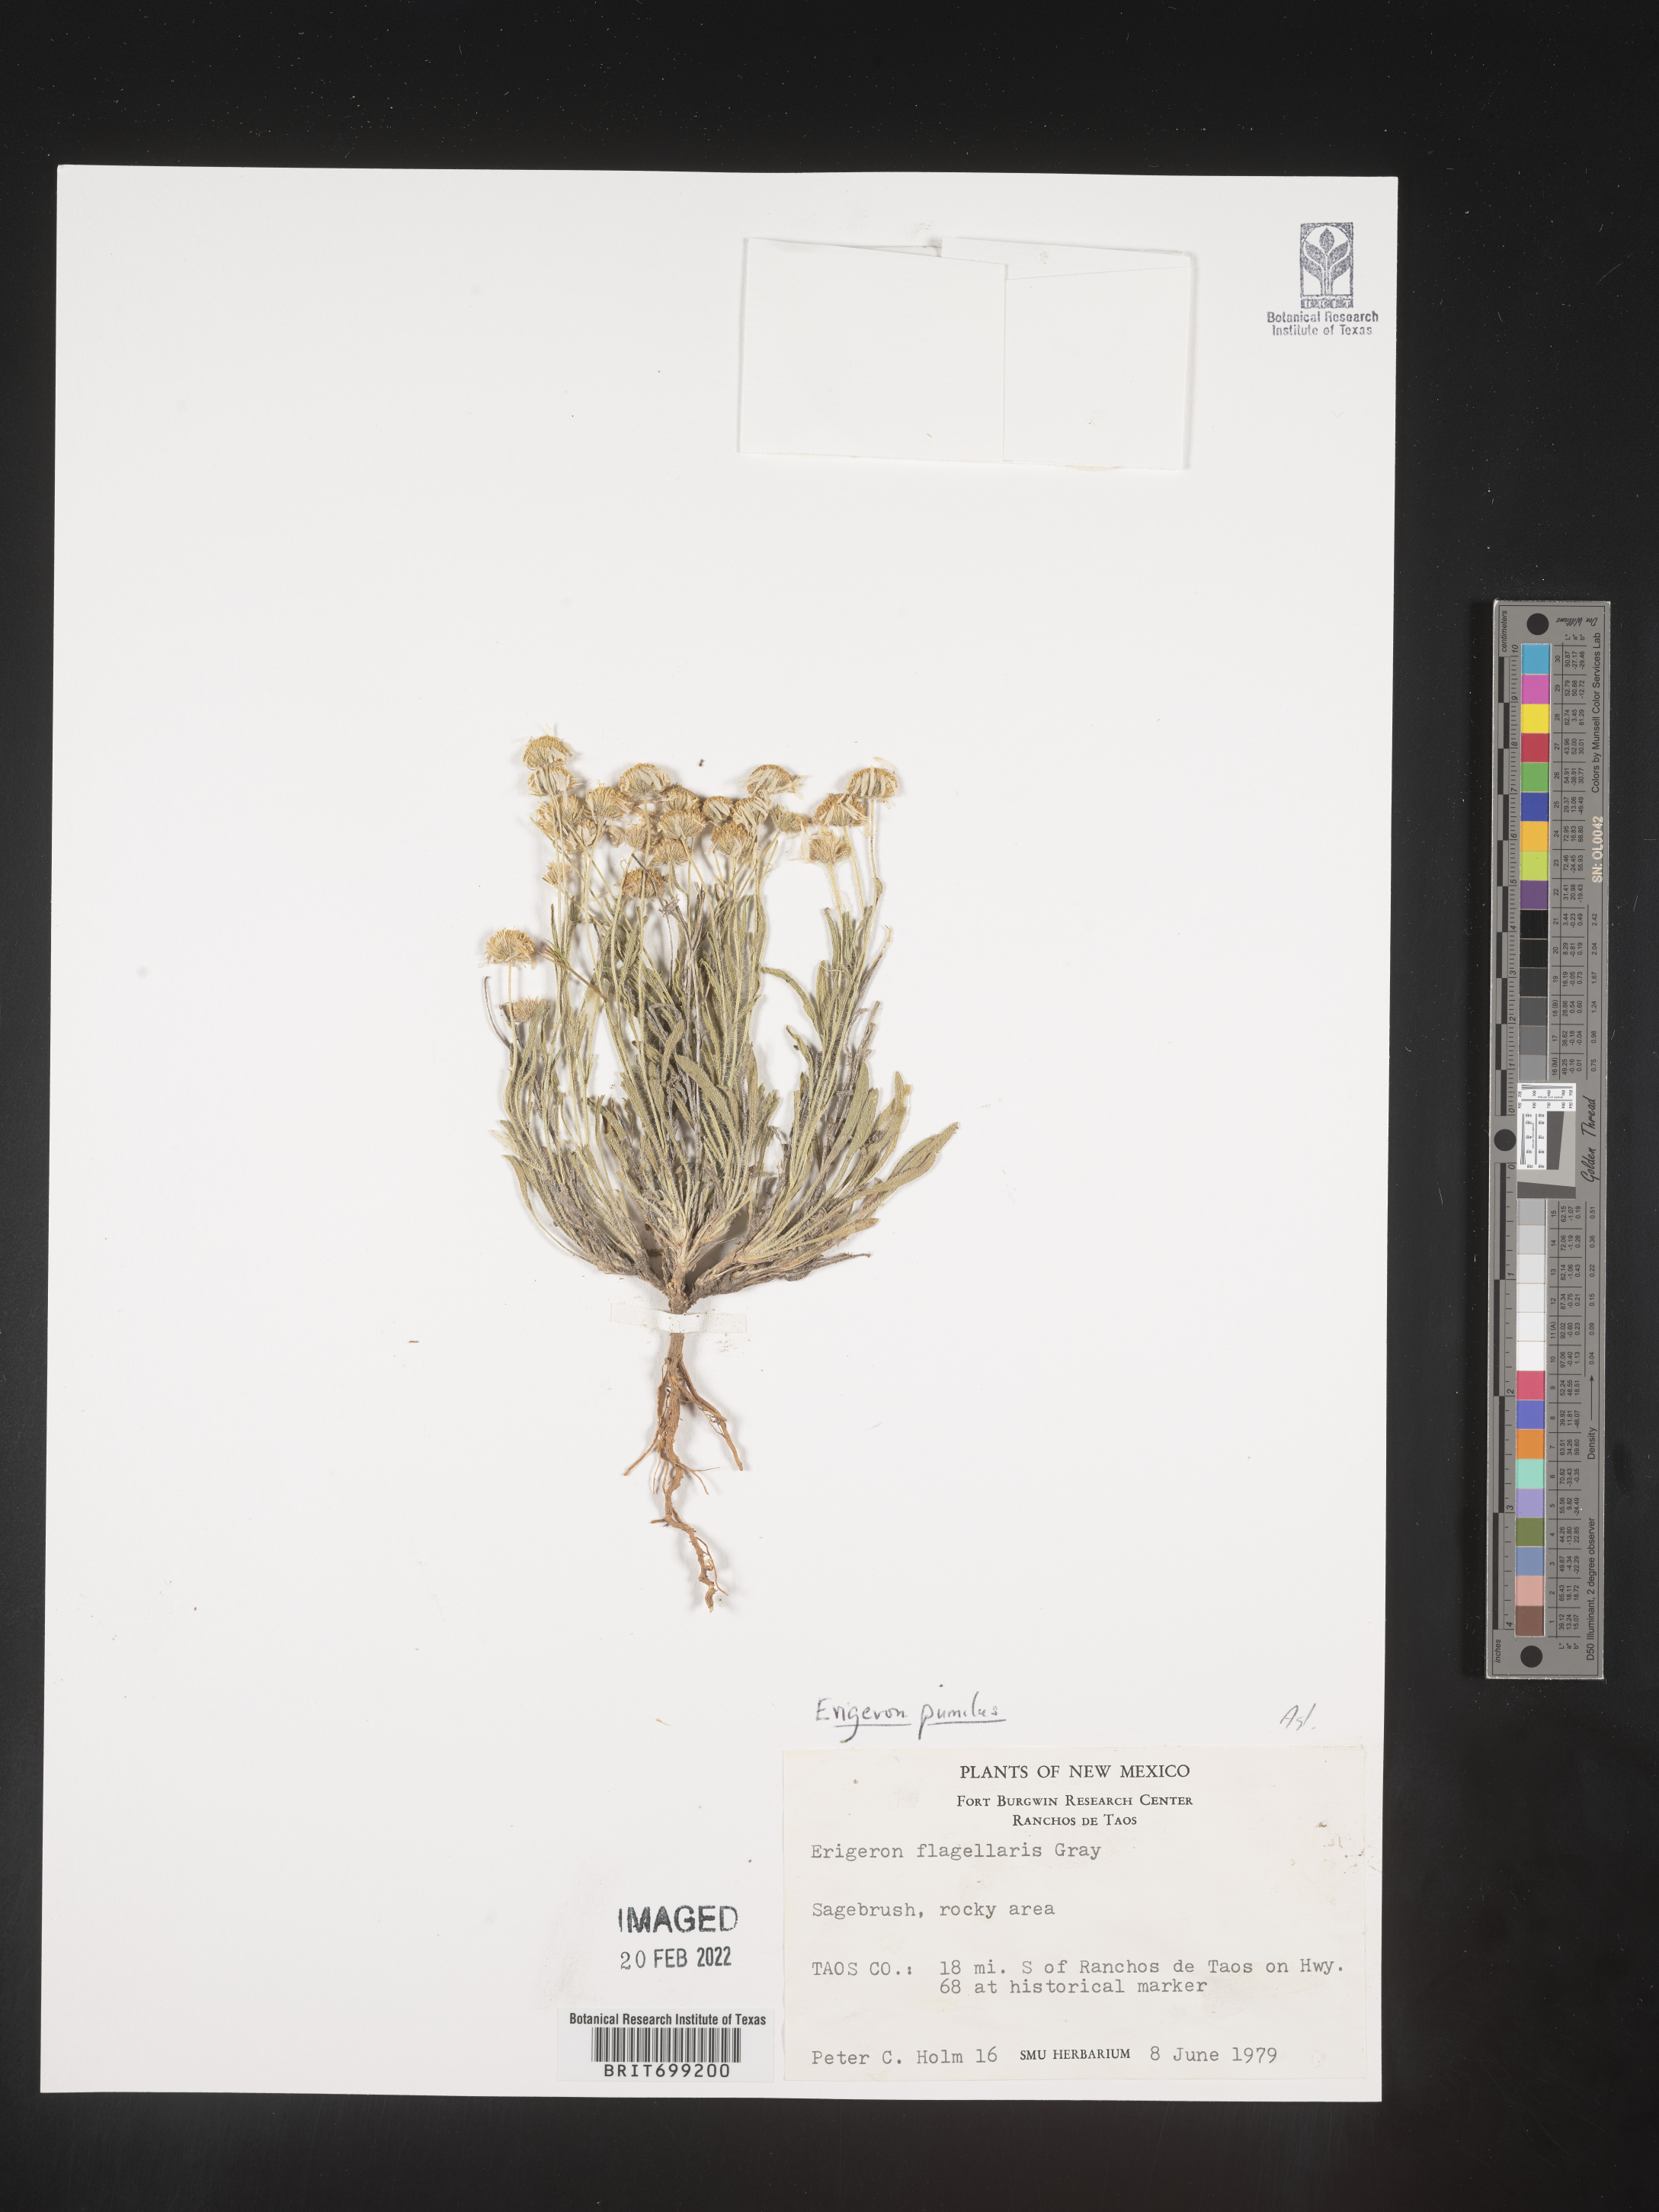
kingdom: Plantae
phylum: Tracheophyta
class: Magnoliopsida
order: Asterales
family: Asteraceae
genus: Erigeron
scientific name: Erigeron pumilus
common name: Shaggy fleabane
